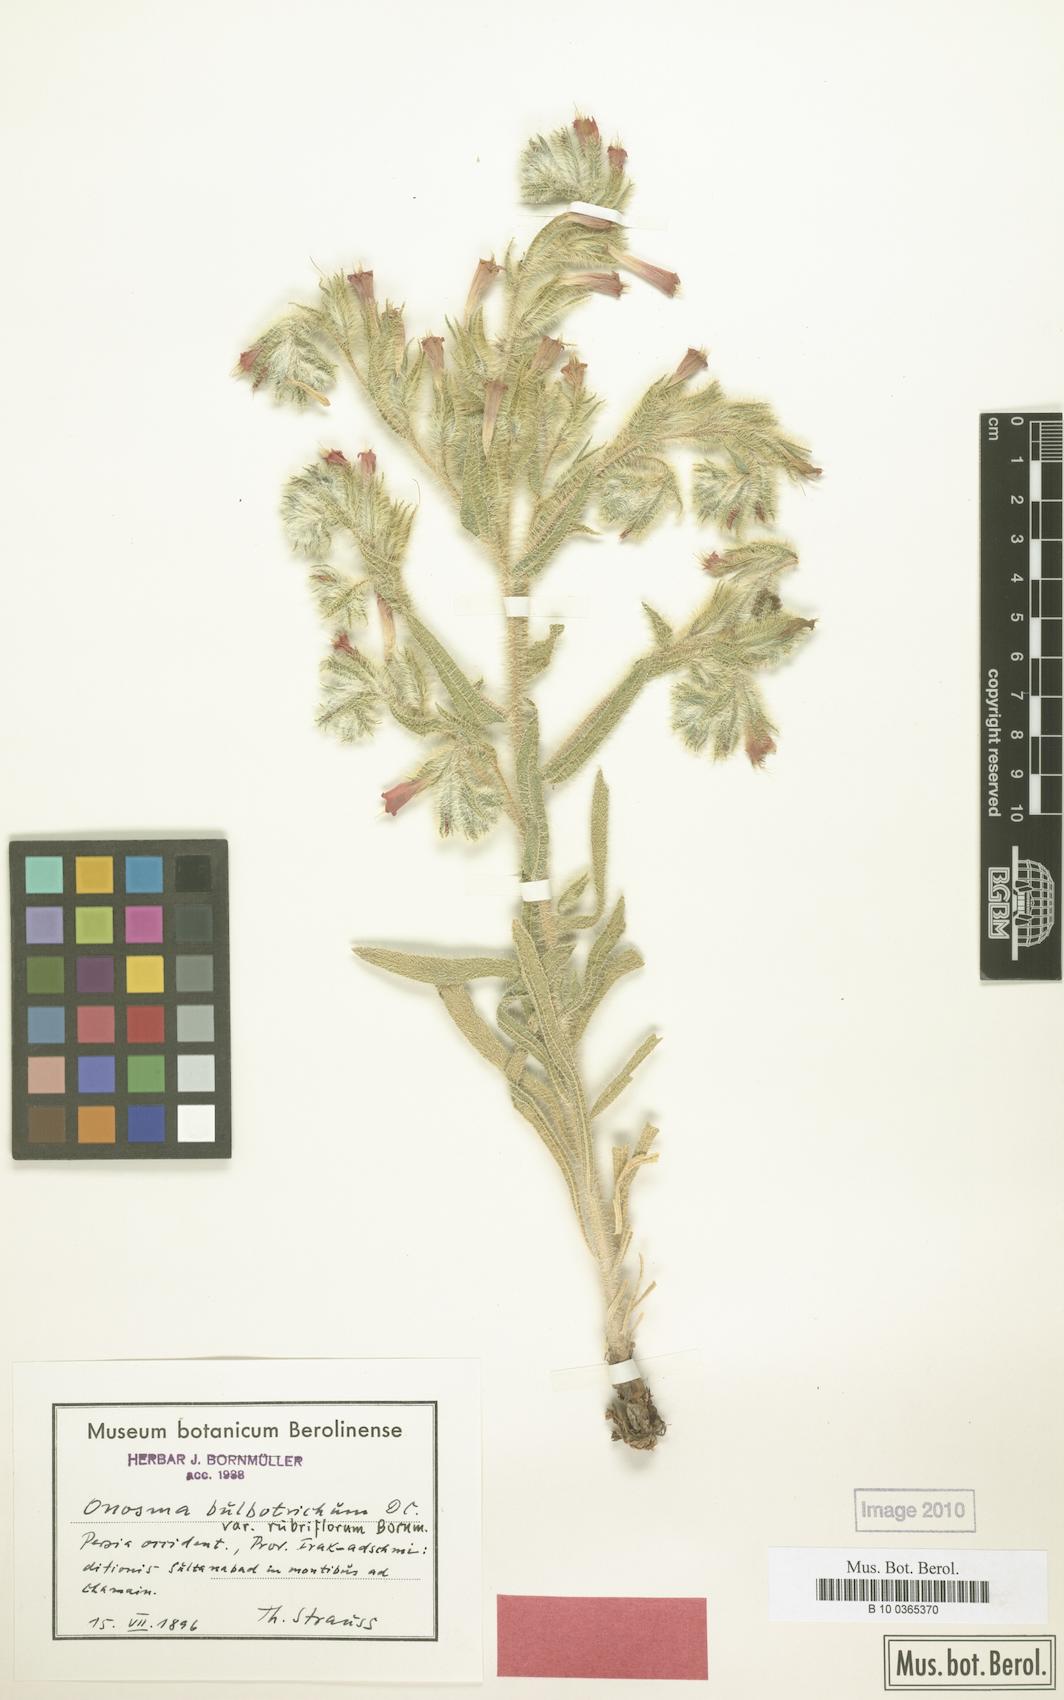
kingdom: Plantae
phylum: Tracheophyta
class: Magnoliopsida
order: Boraginales
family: Boraginaceae
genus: Onosma
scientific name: Onosma straussii
